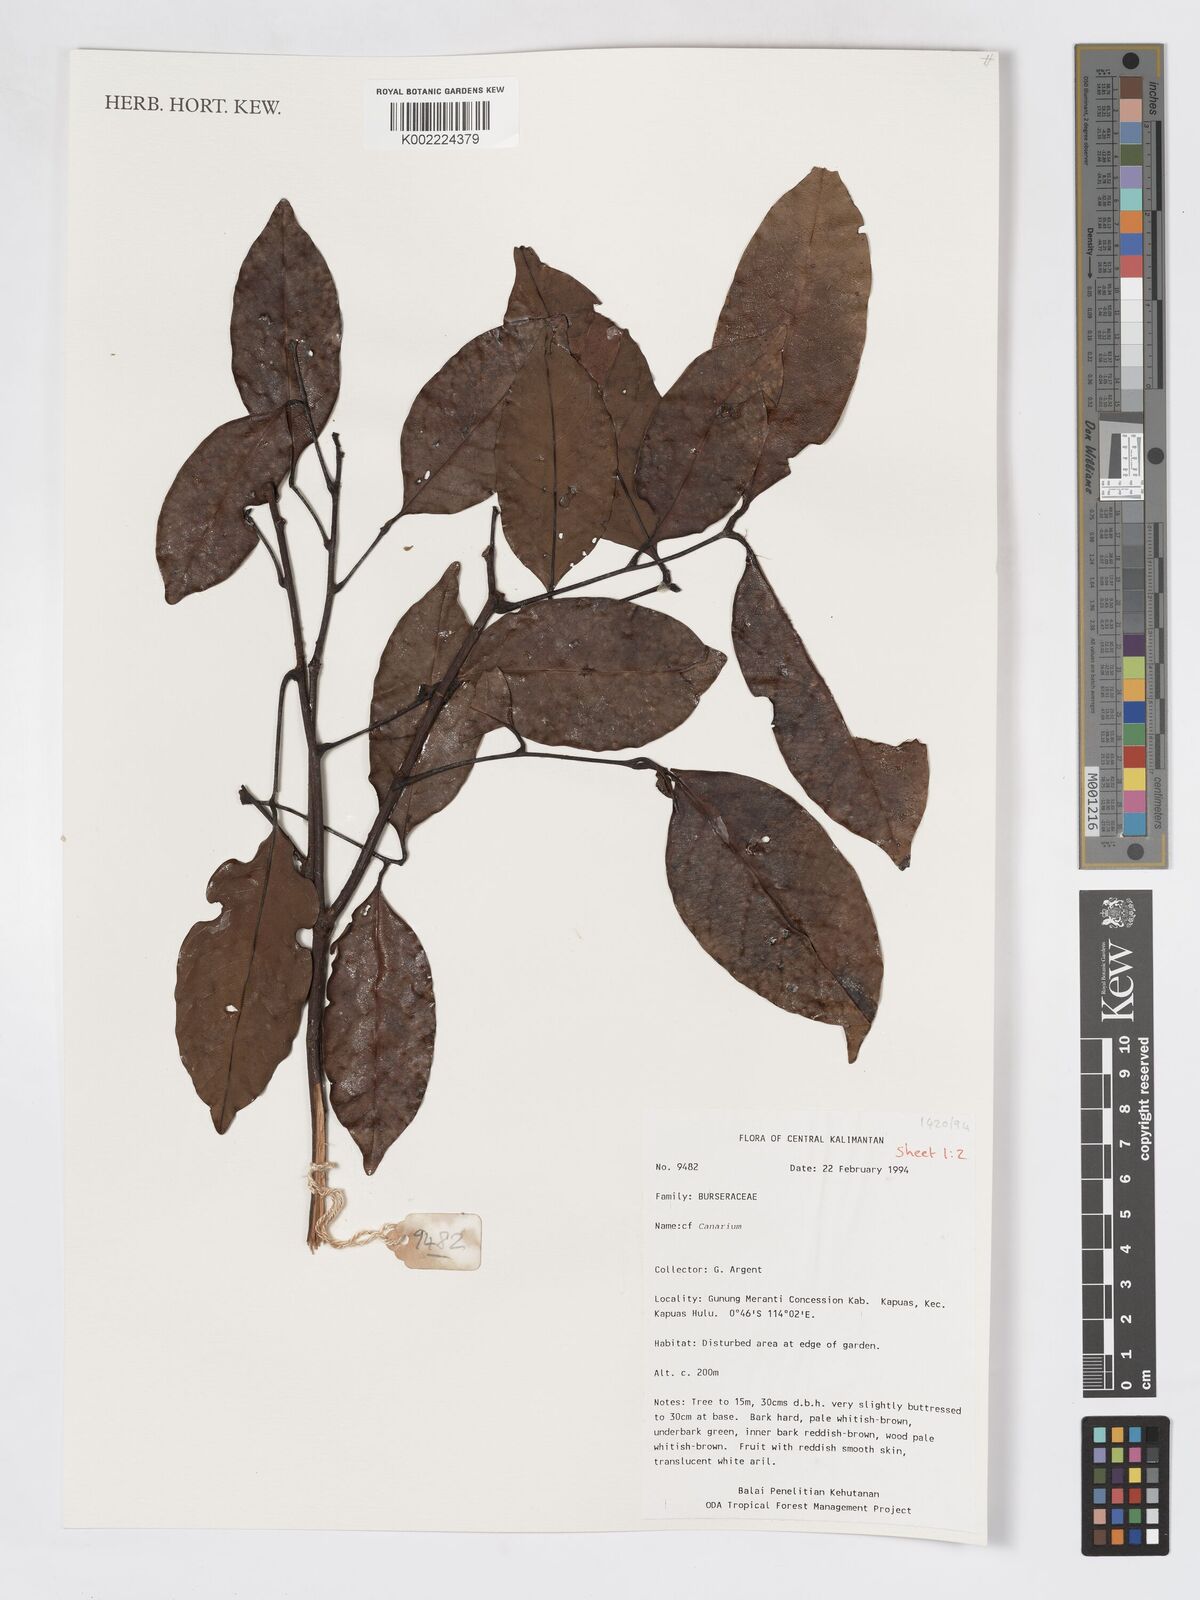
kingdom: Plantae
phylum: Tracheophyta
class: Magnoliopsida
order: Sapindales
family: Burseraceae
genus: Canarium
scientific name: Canarium
